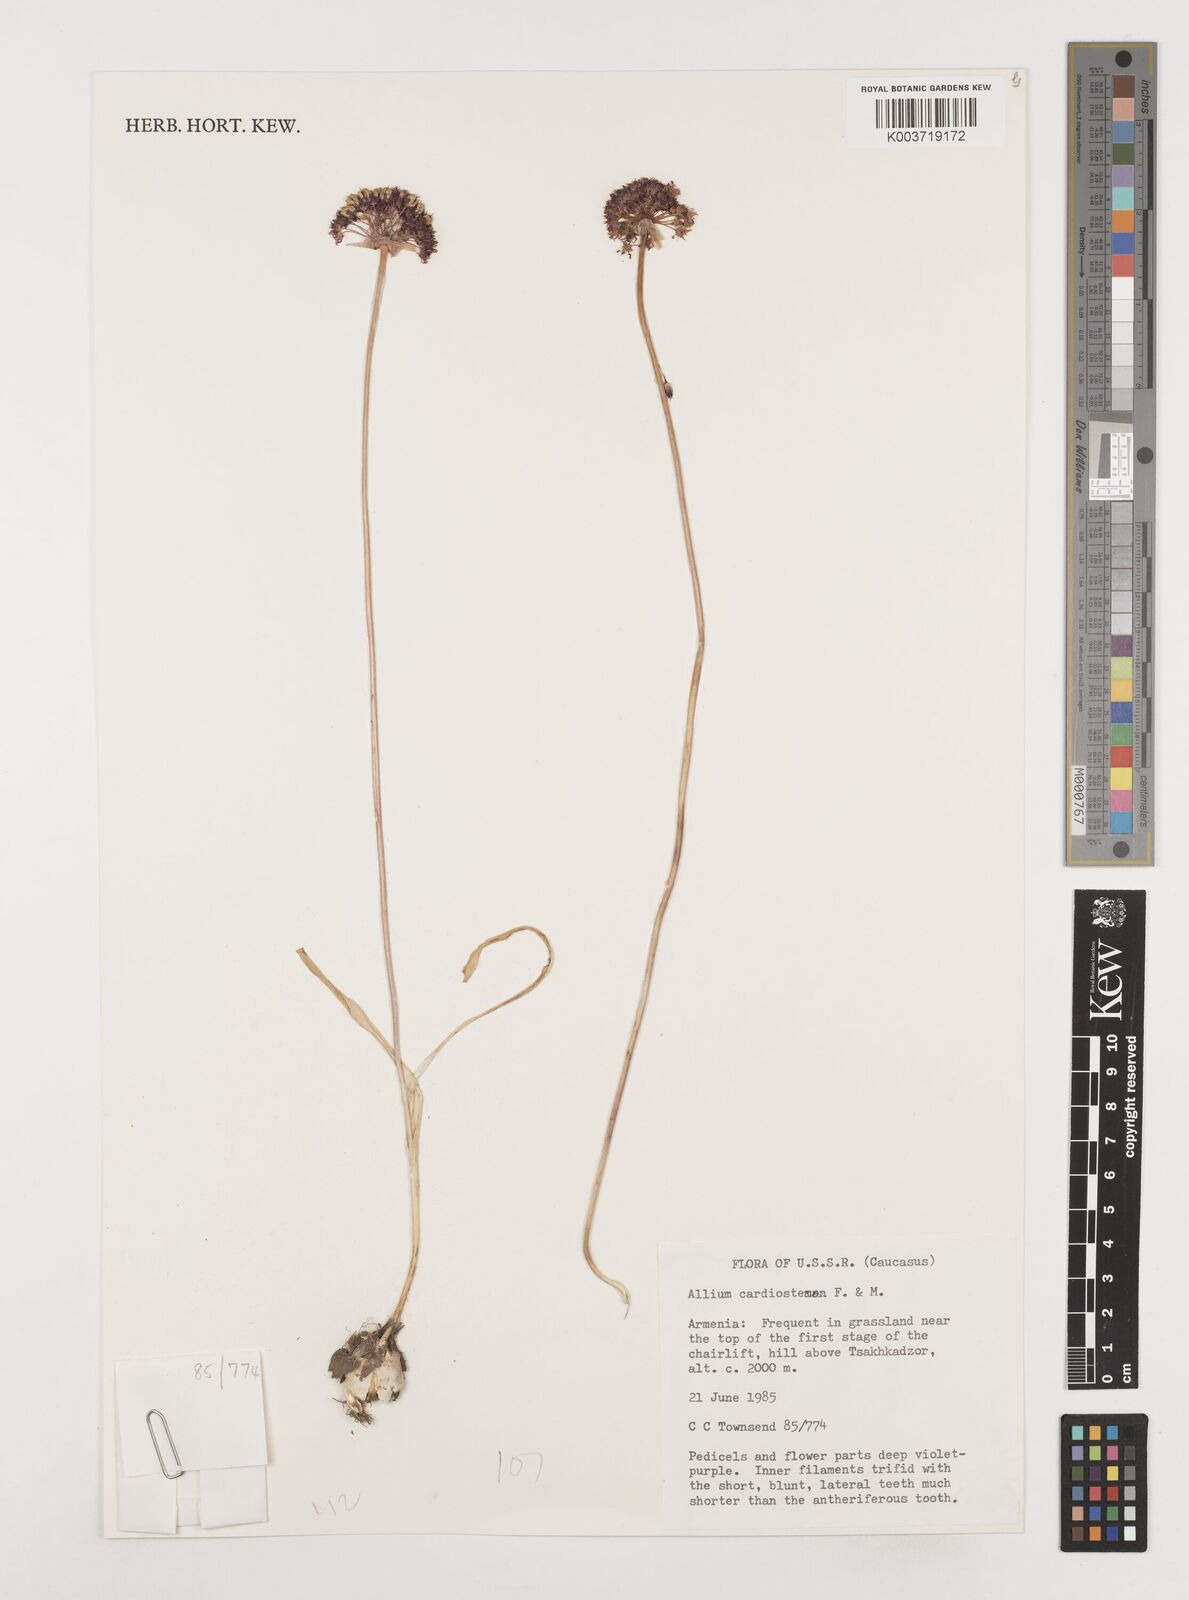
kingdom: Plantae
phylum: Tracheophyta
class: Liliopsida
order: Asparagales
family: Amaryllidaceae
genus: Allium
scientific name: Allium cardiostemon
